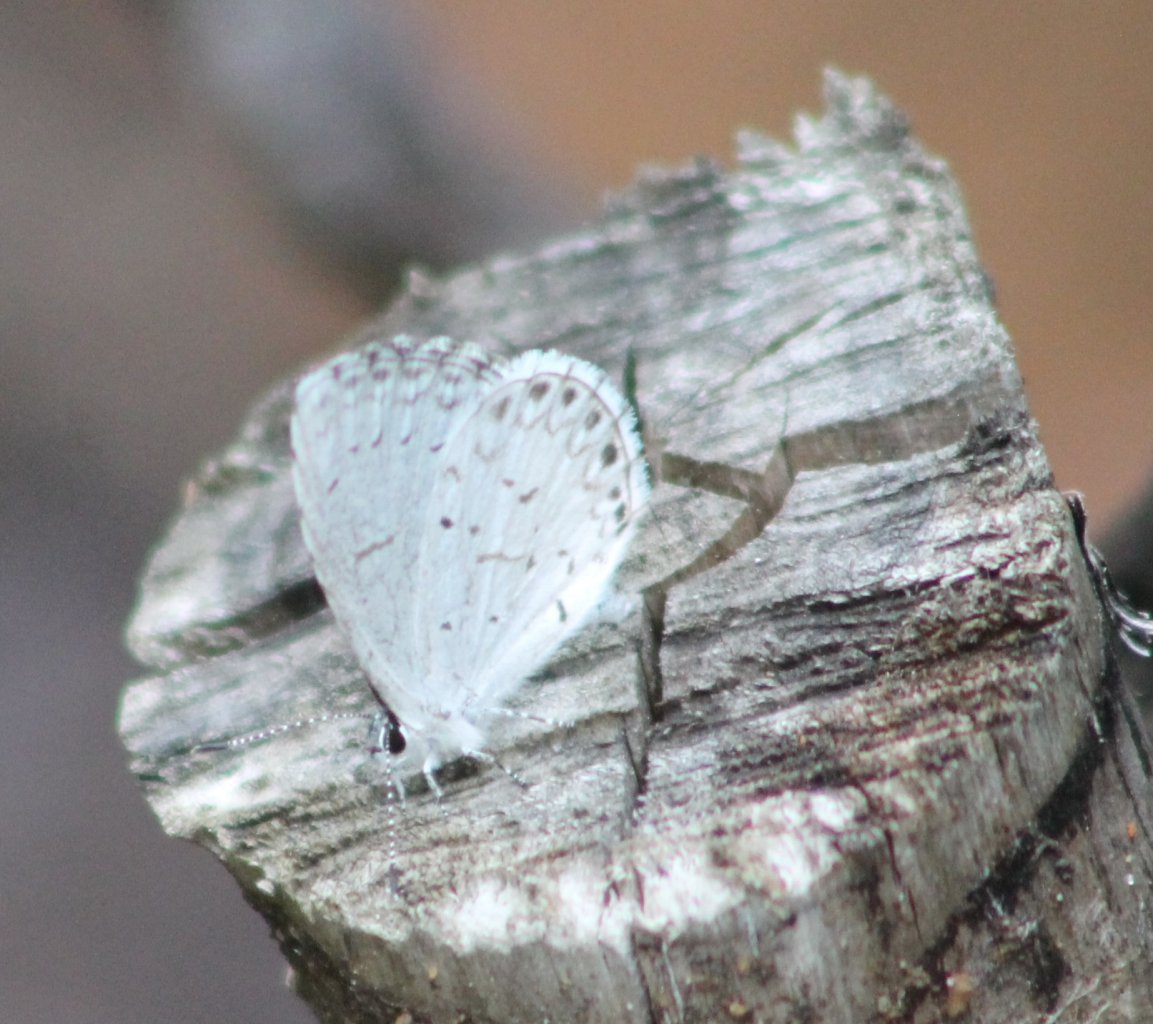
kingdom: Animalia
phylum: Arthropoda
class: Insecta
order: Lepidoptera
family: Lycaenidae
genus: Cyaniris
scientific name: Cyaniris neglecta
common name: Summer Azure
